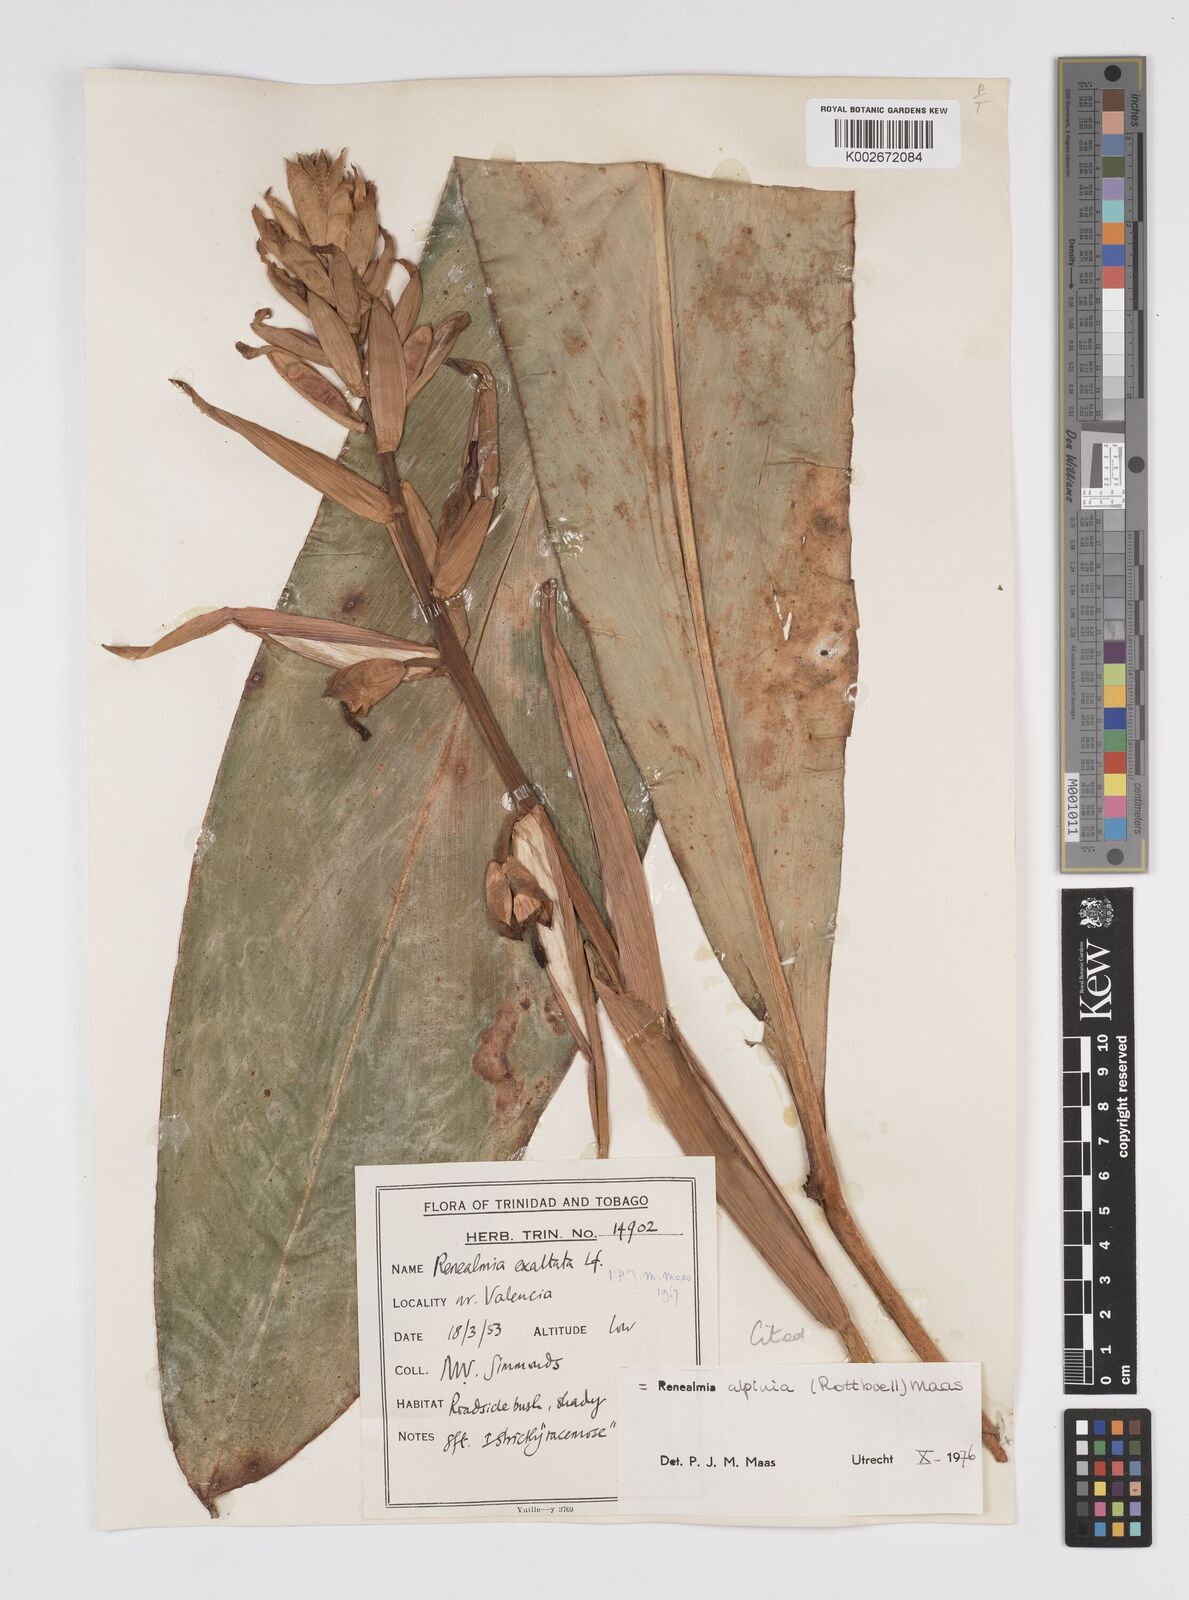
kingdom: Plantae
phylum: Tracheophyta
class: Liliopsida
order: Zingiberales
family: Zingiberaceae
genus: Renealmia
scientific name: Renealmia alpinia
